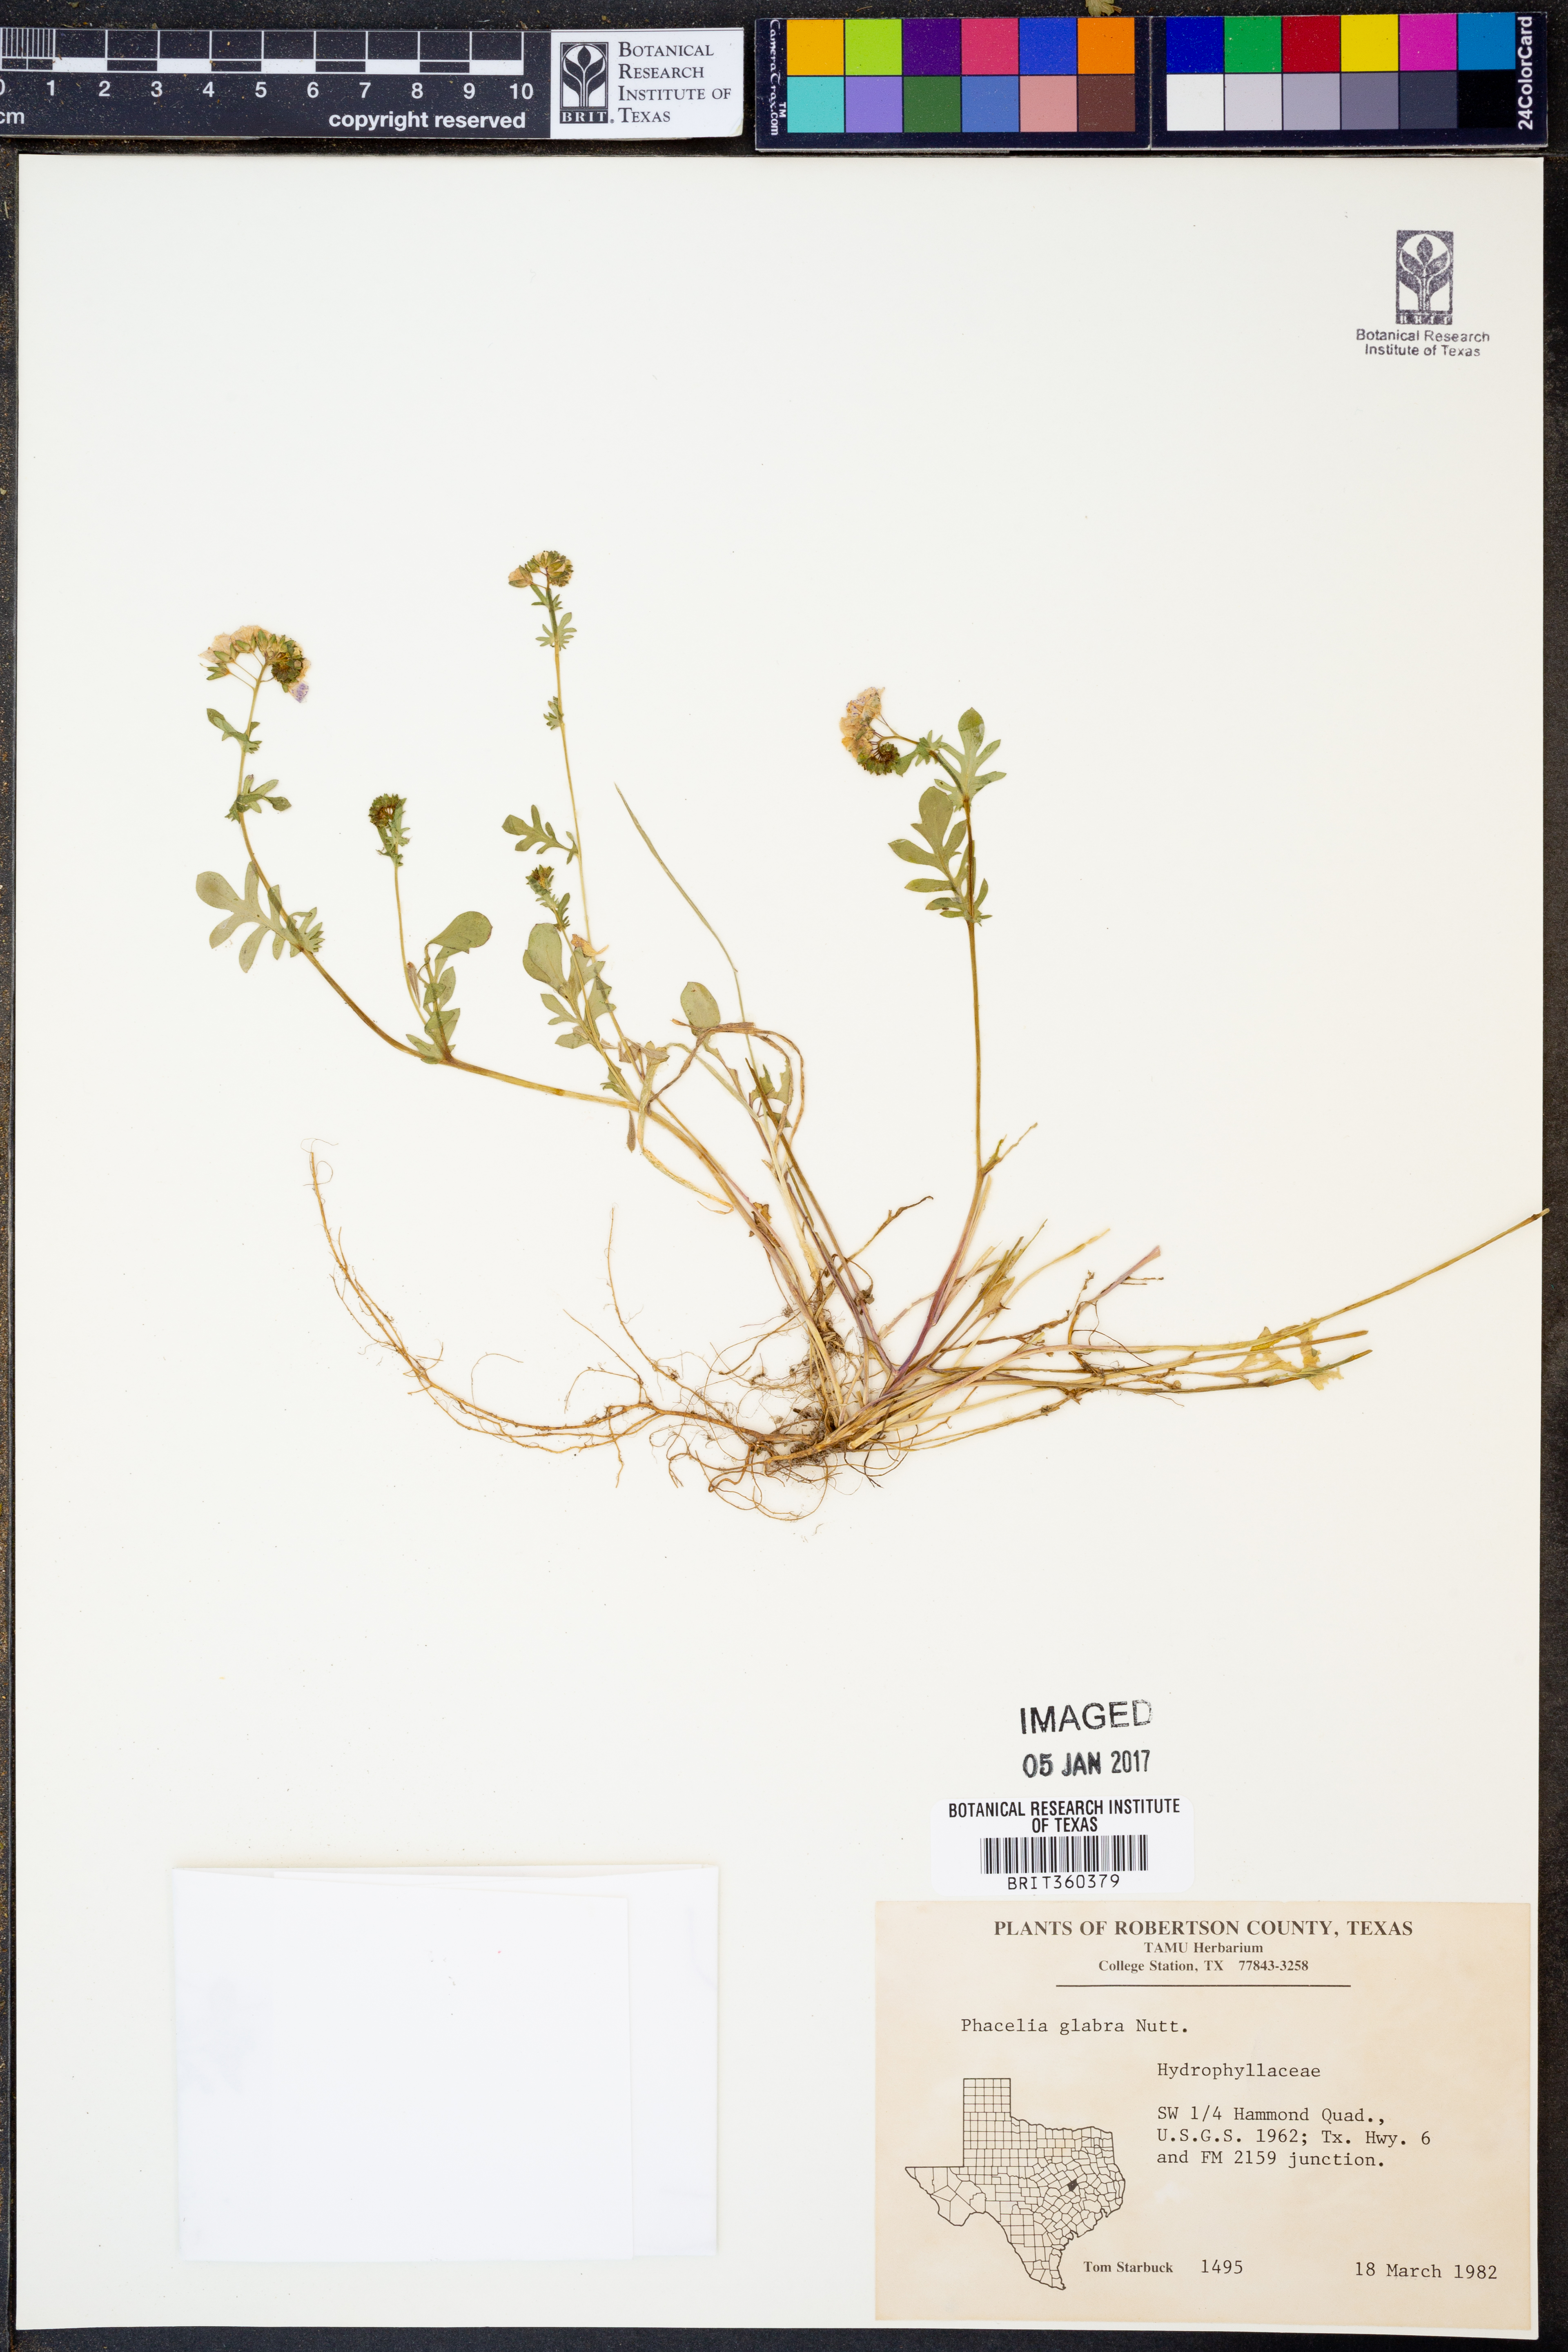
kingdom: Plantae
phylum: Tracheophyta
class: Magnoliopsida
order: Boraginales
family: Hydrophyllaceae
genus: Phacelia
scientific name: Phacelia glabra
